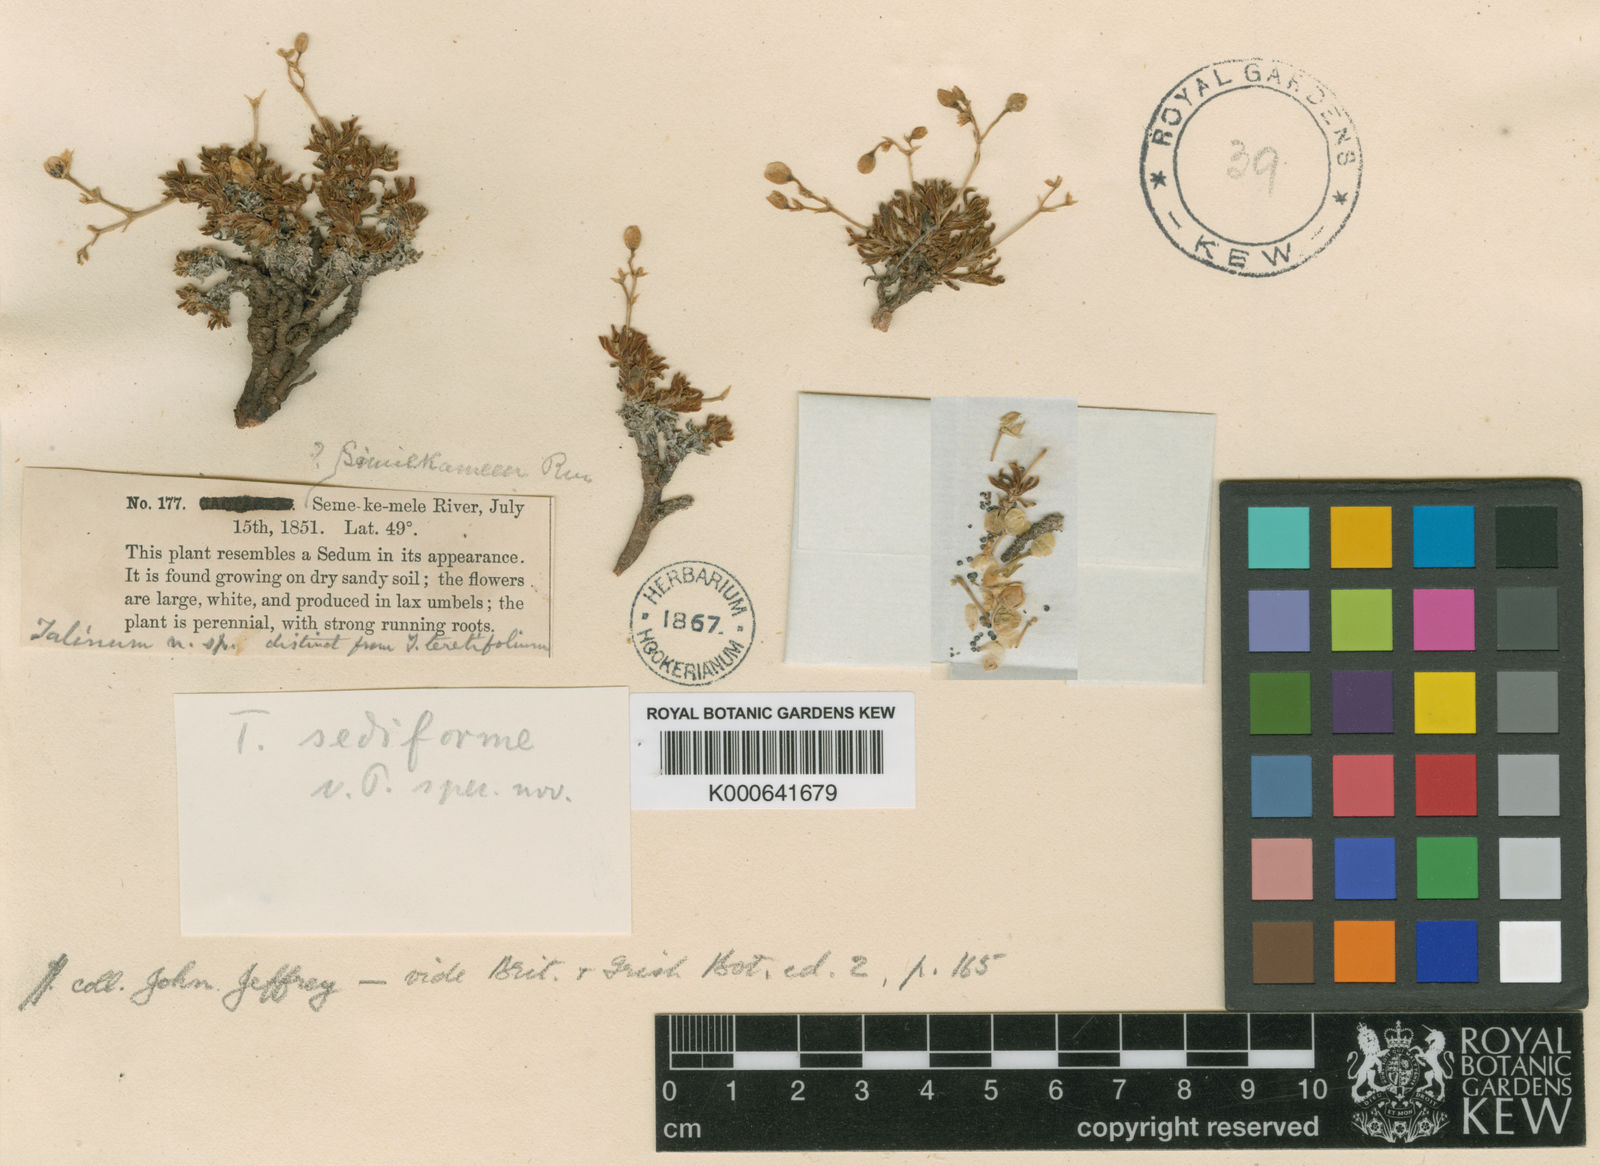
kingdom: Plantae
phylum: Tracheophyta
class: Magnoliopsida
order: Caryophyllales
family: Montiaceae
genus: Phemeranthus
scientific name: Phemeranthus sediformis
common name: Okanogan fameflower
